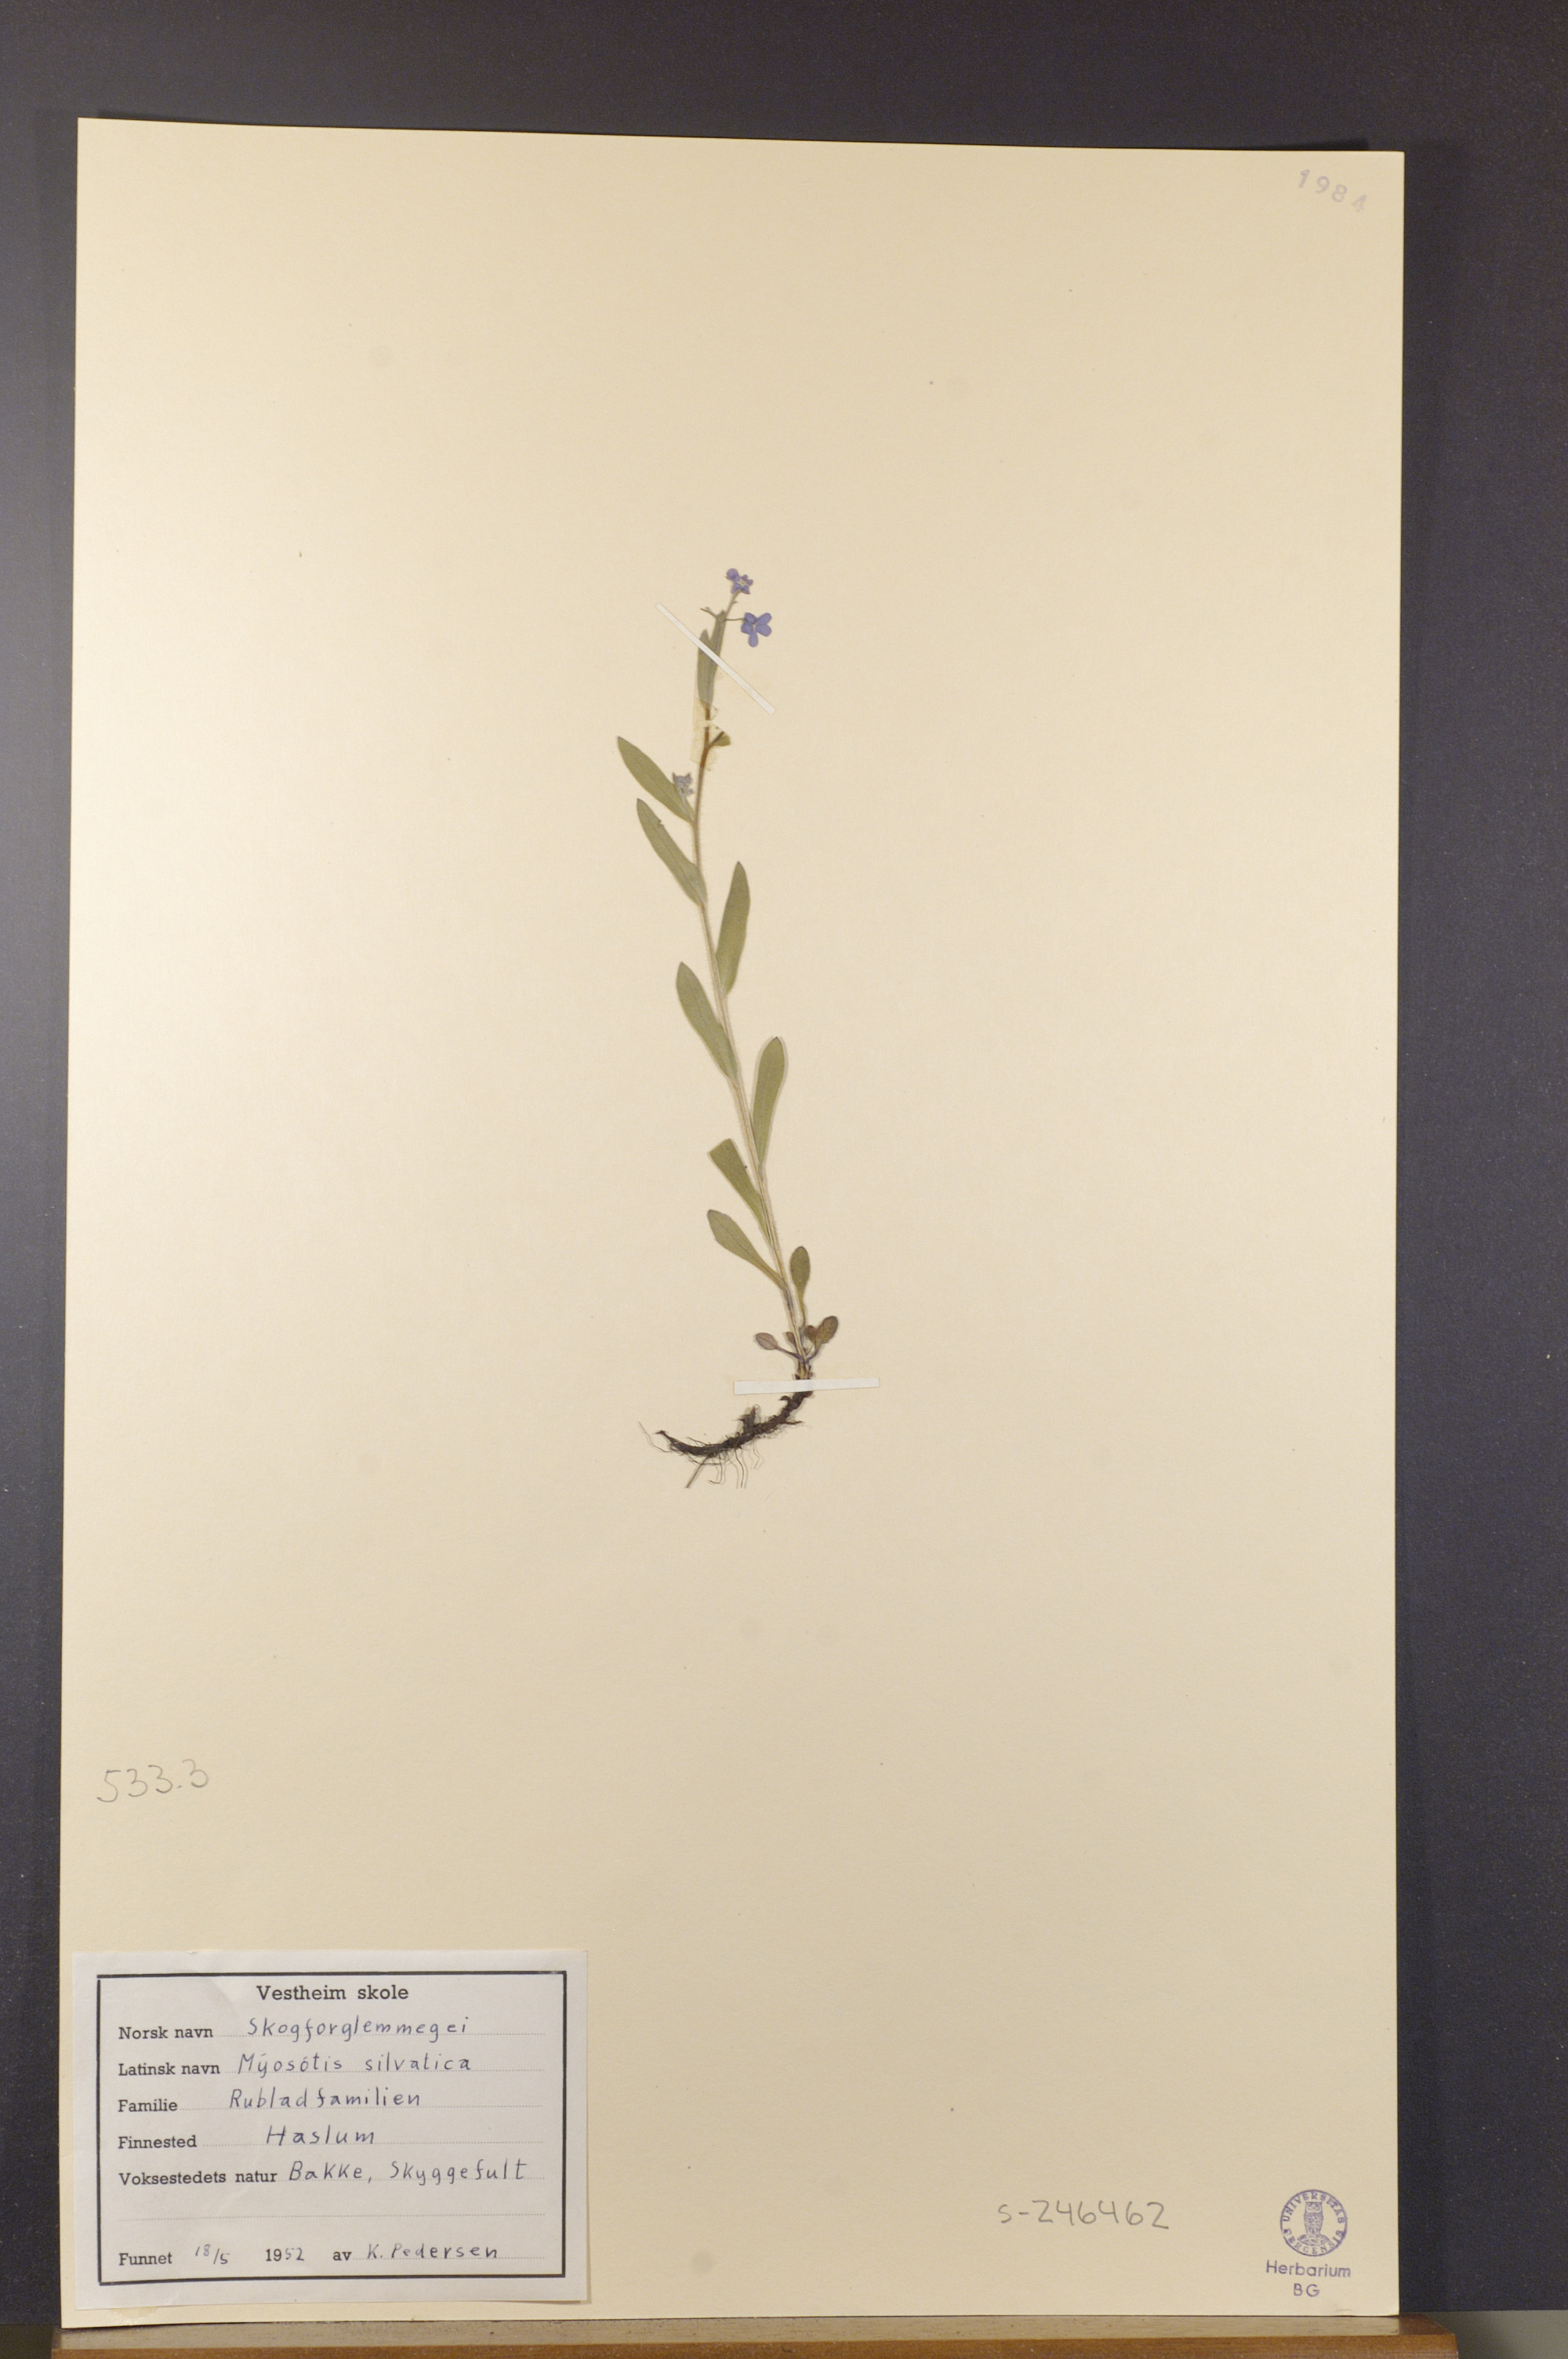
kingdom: Plantae
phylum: Tracheophyta
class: Magnoliopsida
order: Boraginales
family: Boraginaceae
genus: Myosotis
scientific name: Myosotis sylvatica
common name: Wood forget-me-not
